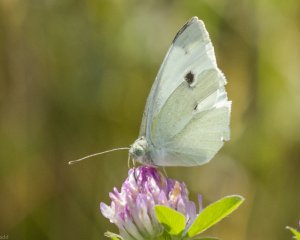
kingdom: Animalia
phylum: Arthropoda
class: Insecta
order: Lepidoptera
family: Pieridae
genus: Pieris
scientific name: Pieris rapae
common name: Cabbage White
